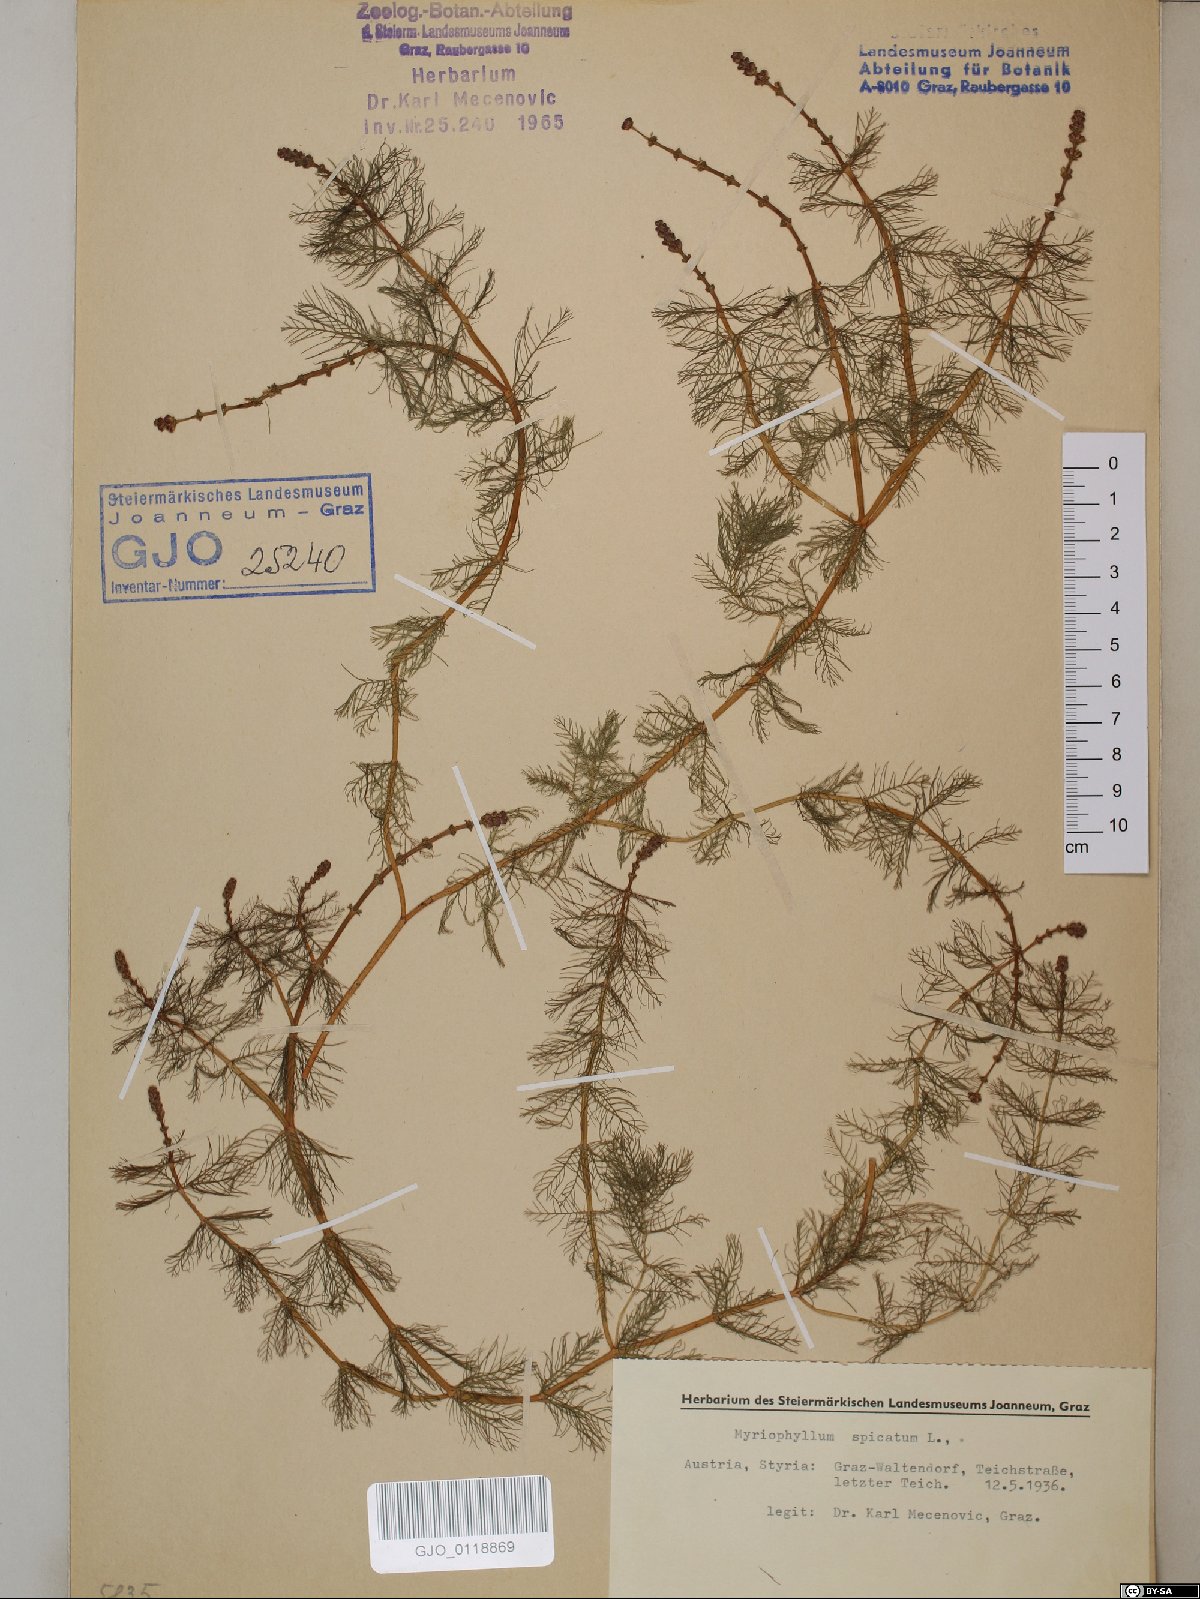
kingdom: Plantae
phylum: Tracheophyta
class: Magnoliopsida
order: Saxifragales
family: Haloragaceae
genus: Myriophyllum
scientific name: Myriophyllum spicatum
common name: Spiked water-milfoil
